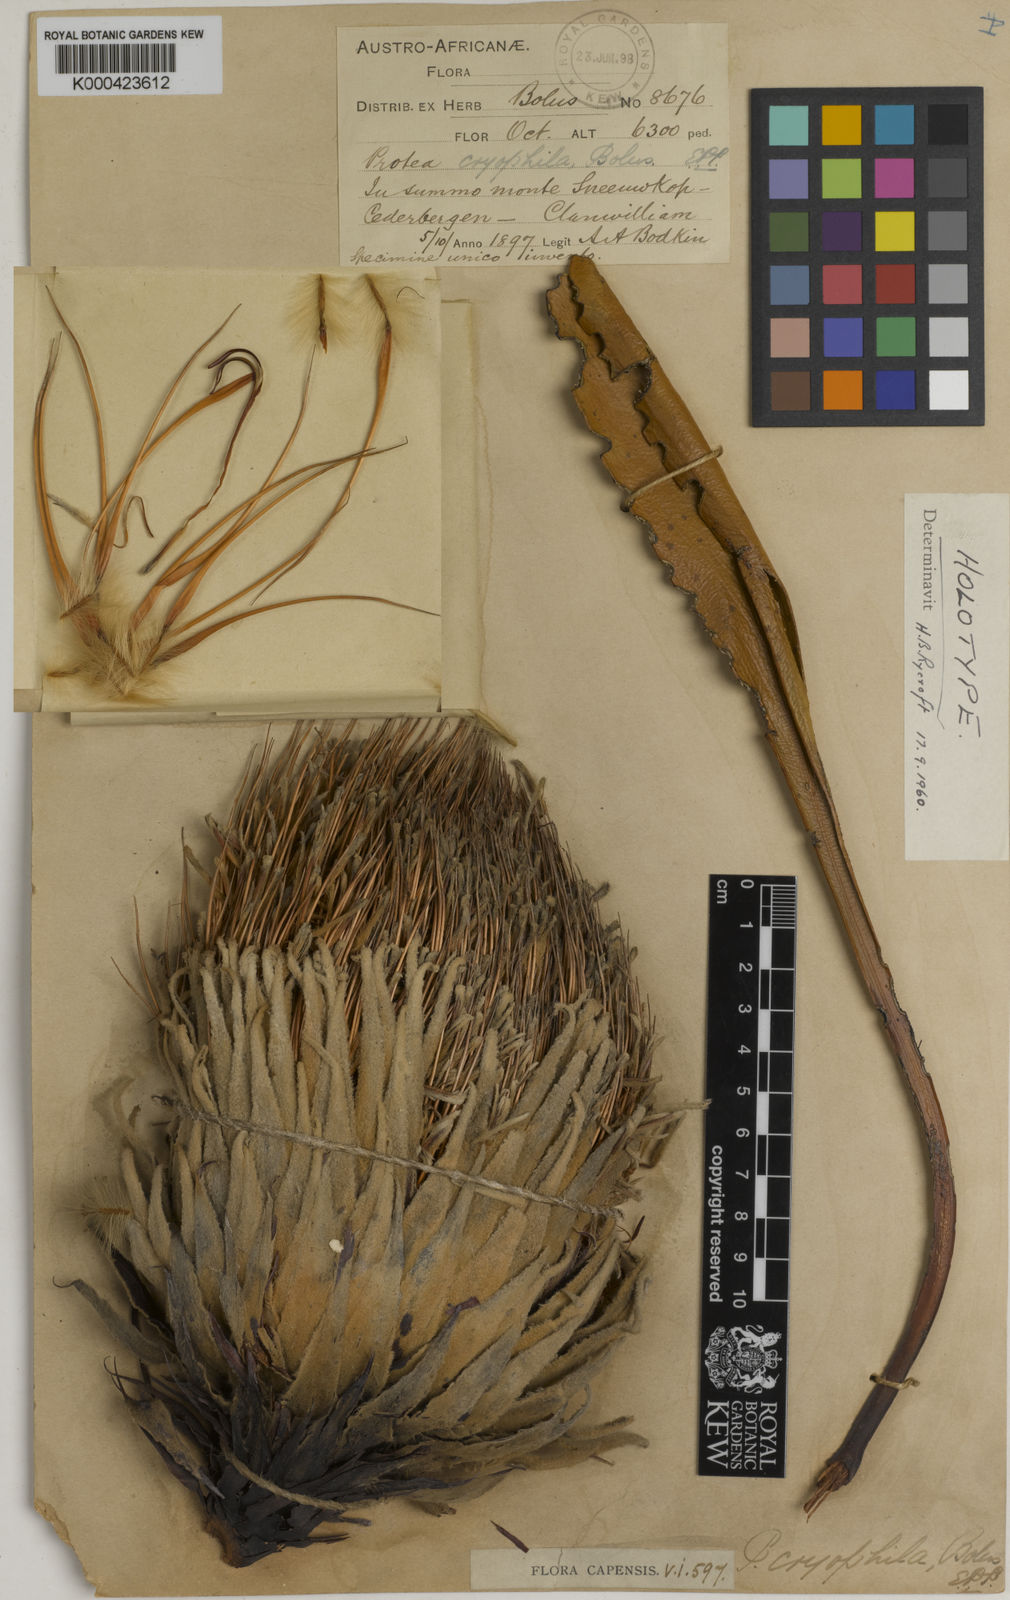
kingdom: Plantae
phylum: Tracheophyta
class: Magnoliopsida
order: Proteales
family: Proteaceae
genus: Protea
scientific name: Protea cryophila
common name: Snow protea
